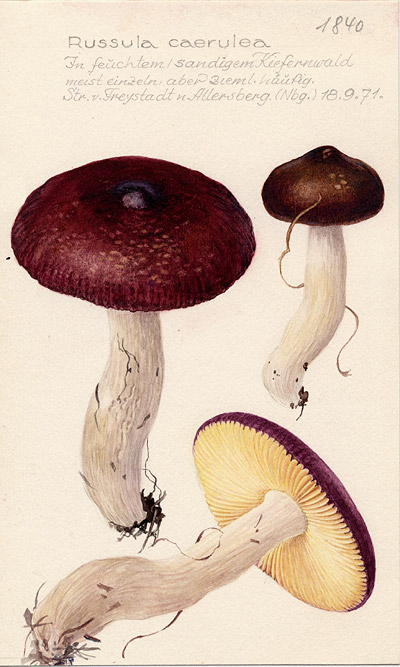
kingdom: Fungi
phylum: Basidiomycota
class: Agaricomycetes
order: Russulales
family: Russulaceae
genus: Russula
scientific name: Russula caerulea
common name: Humpback brittlegill
